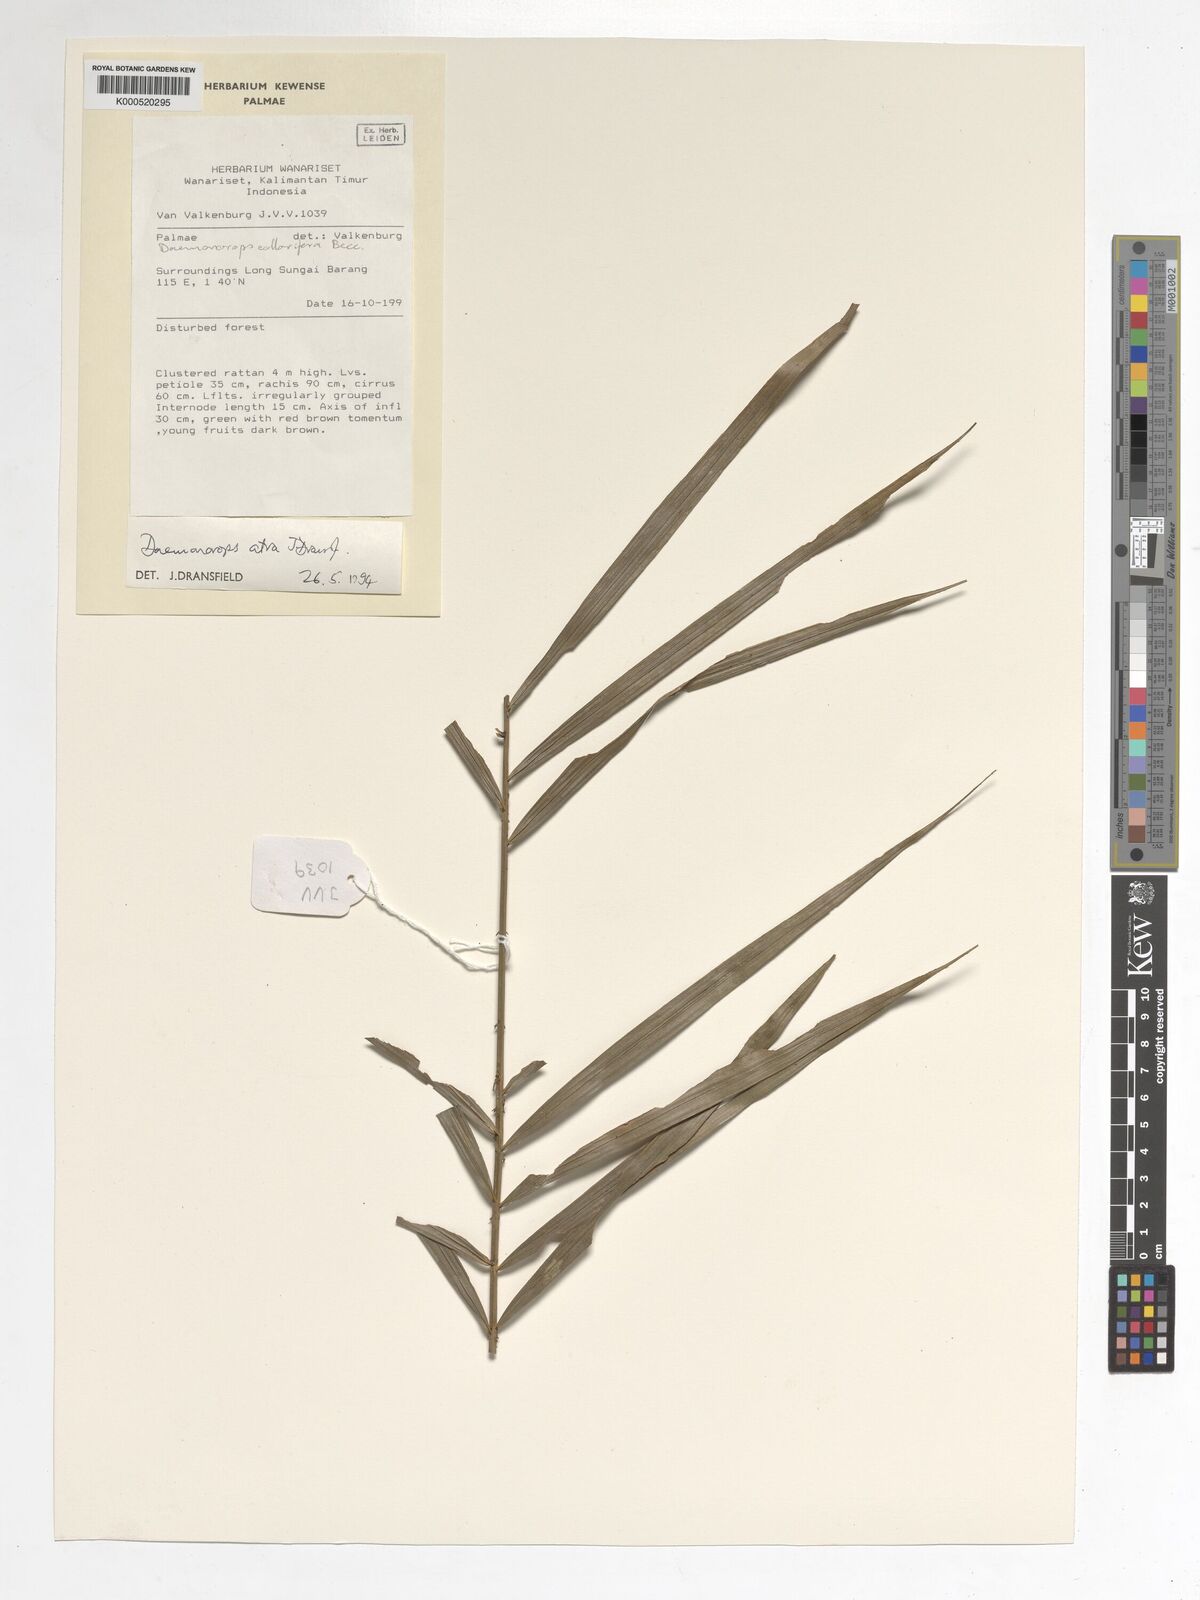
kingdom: Plantae
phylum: Tracheophyta
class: Liliopsida
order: Arecales
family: Arecaceae
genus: Calamus
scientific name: Calamus ater
